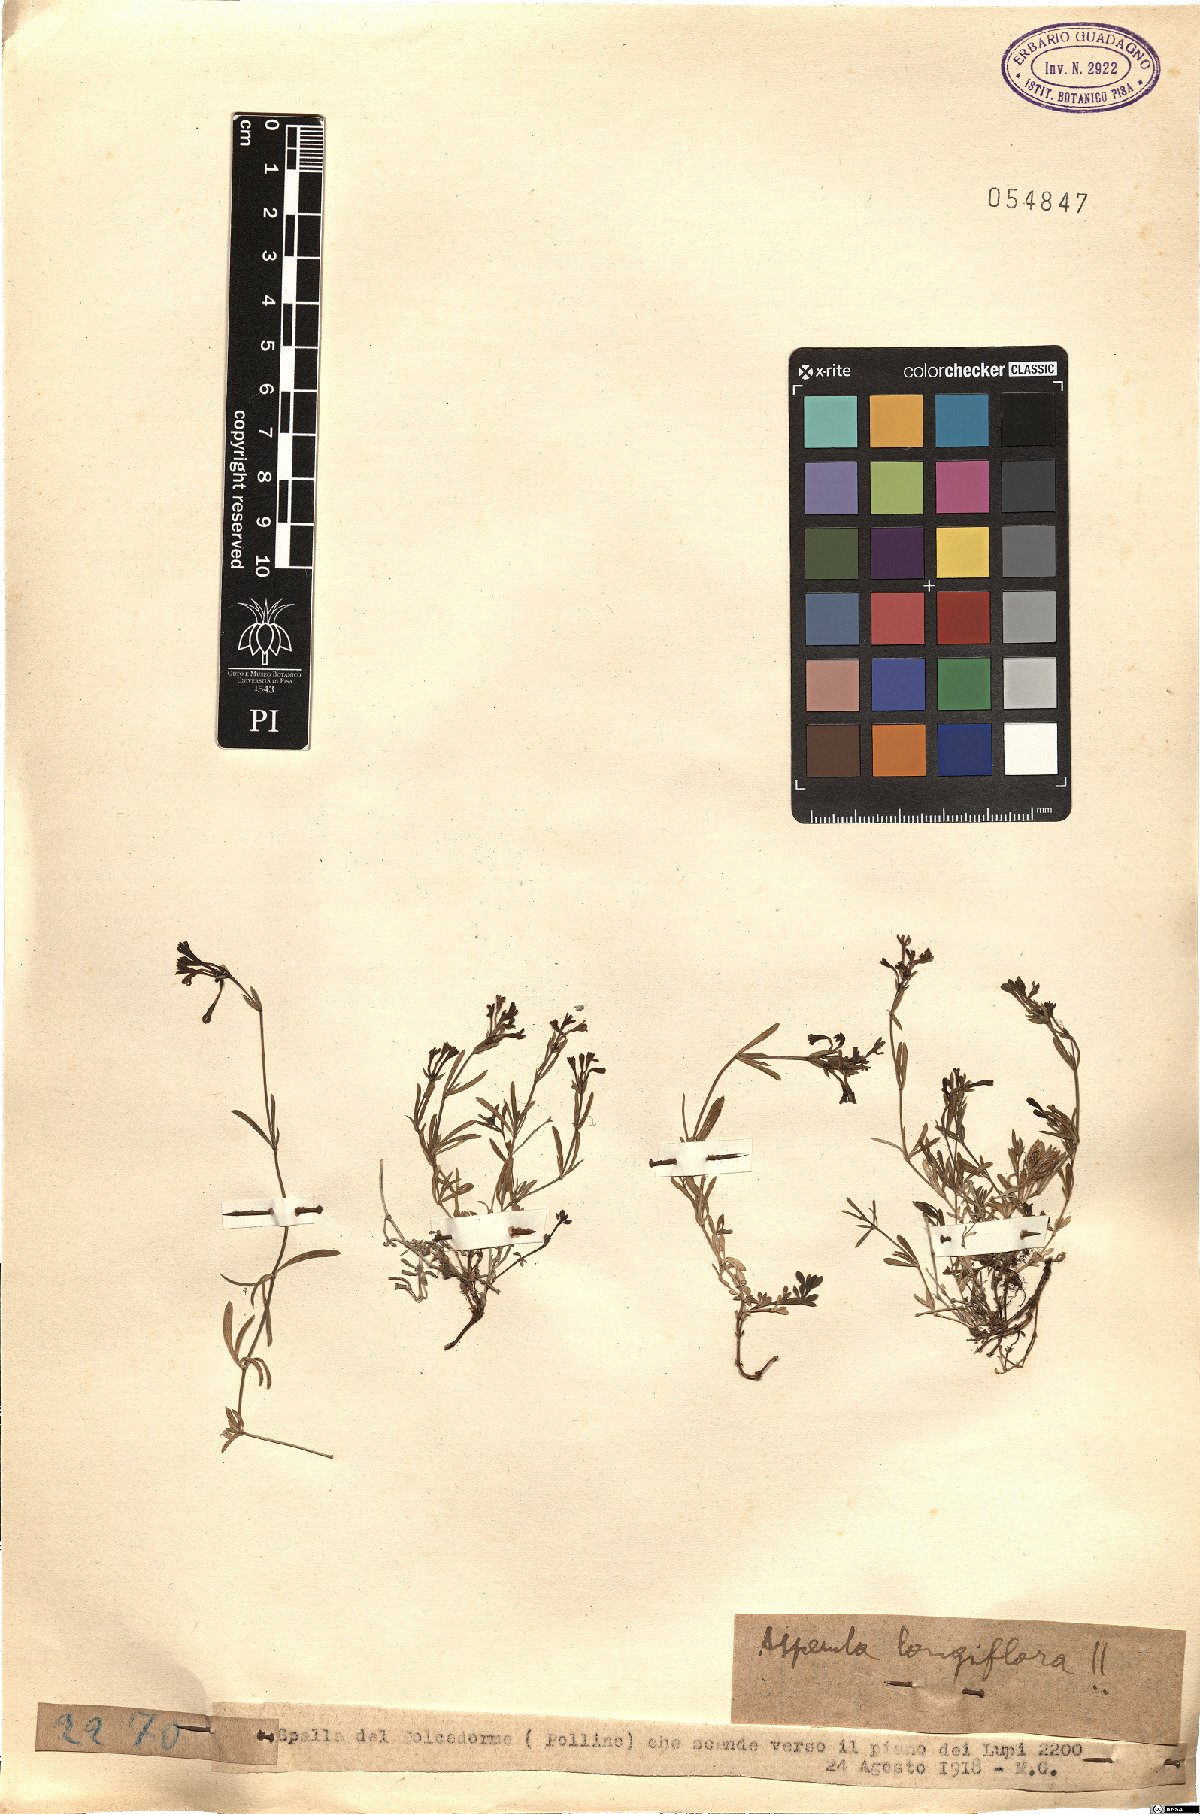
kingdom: Plantae
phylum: Tracheophyta
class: Magnoliopsida
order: Gentianales
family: Rubiaceae
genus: Cynanchica
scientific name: Cynanchica aristata
